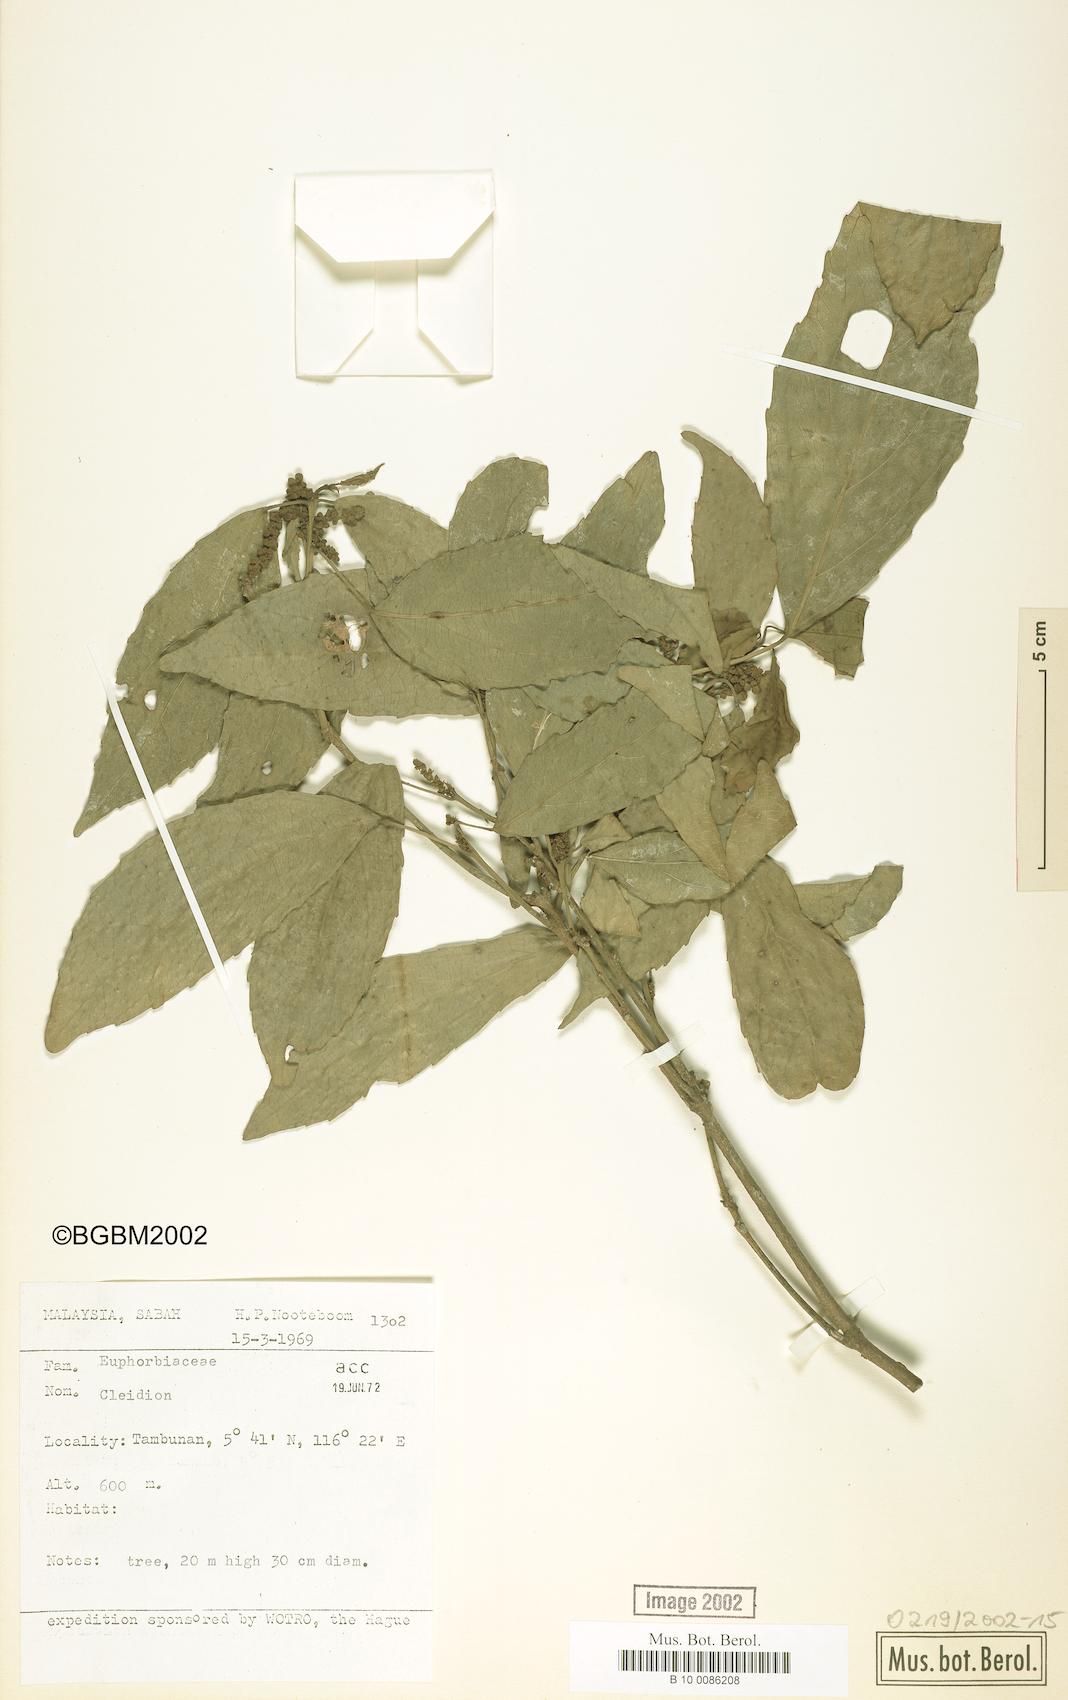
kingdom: Plantae
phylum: Tracheophyta
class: Magnoliopsida
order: Malpighiales
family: Euphorbiaceae
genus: Cleidion
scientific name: Cleidion
